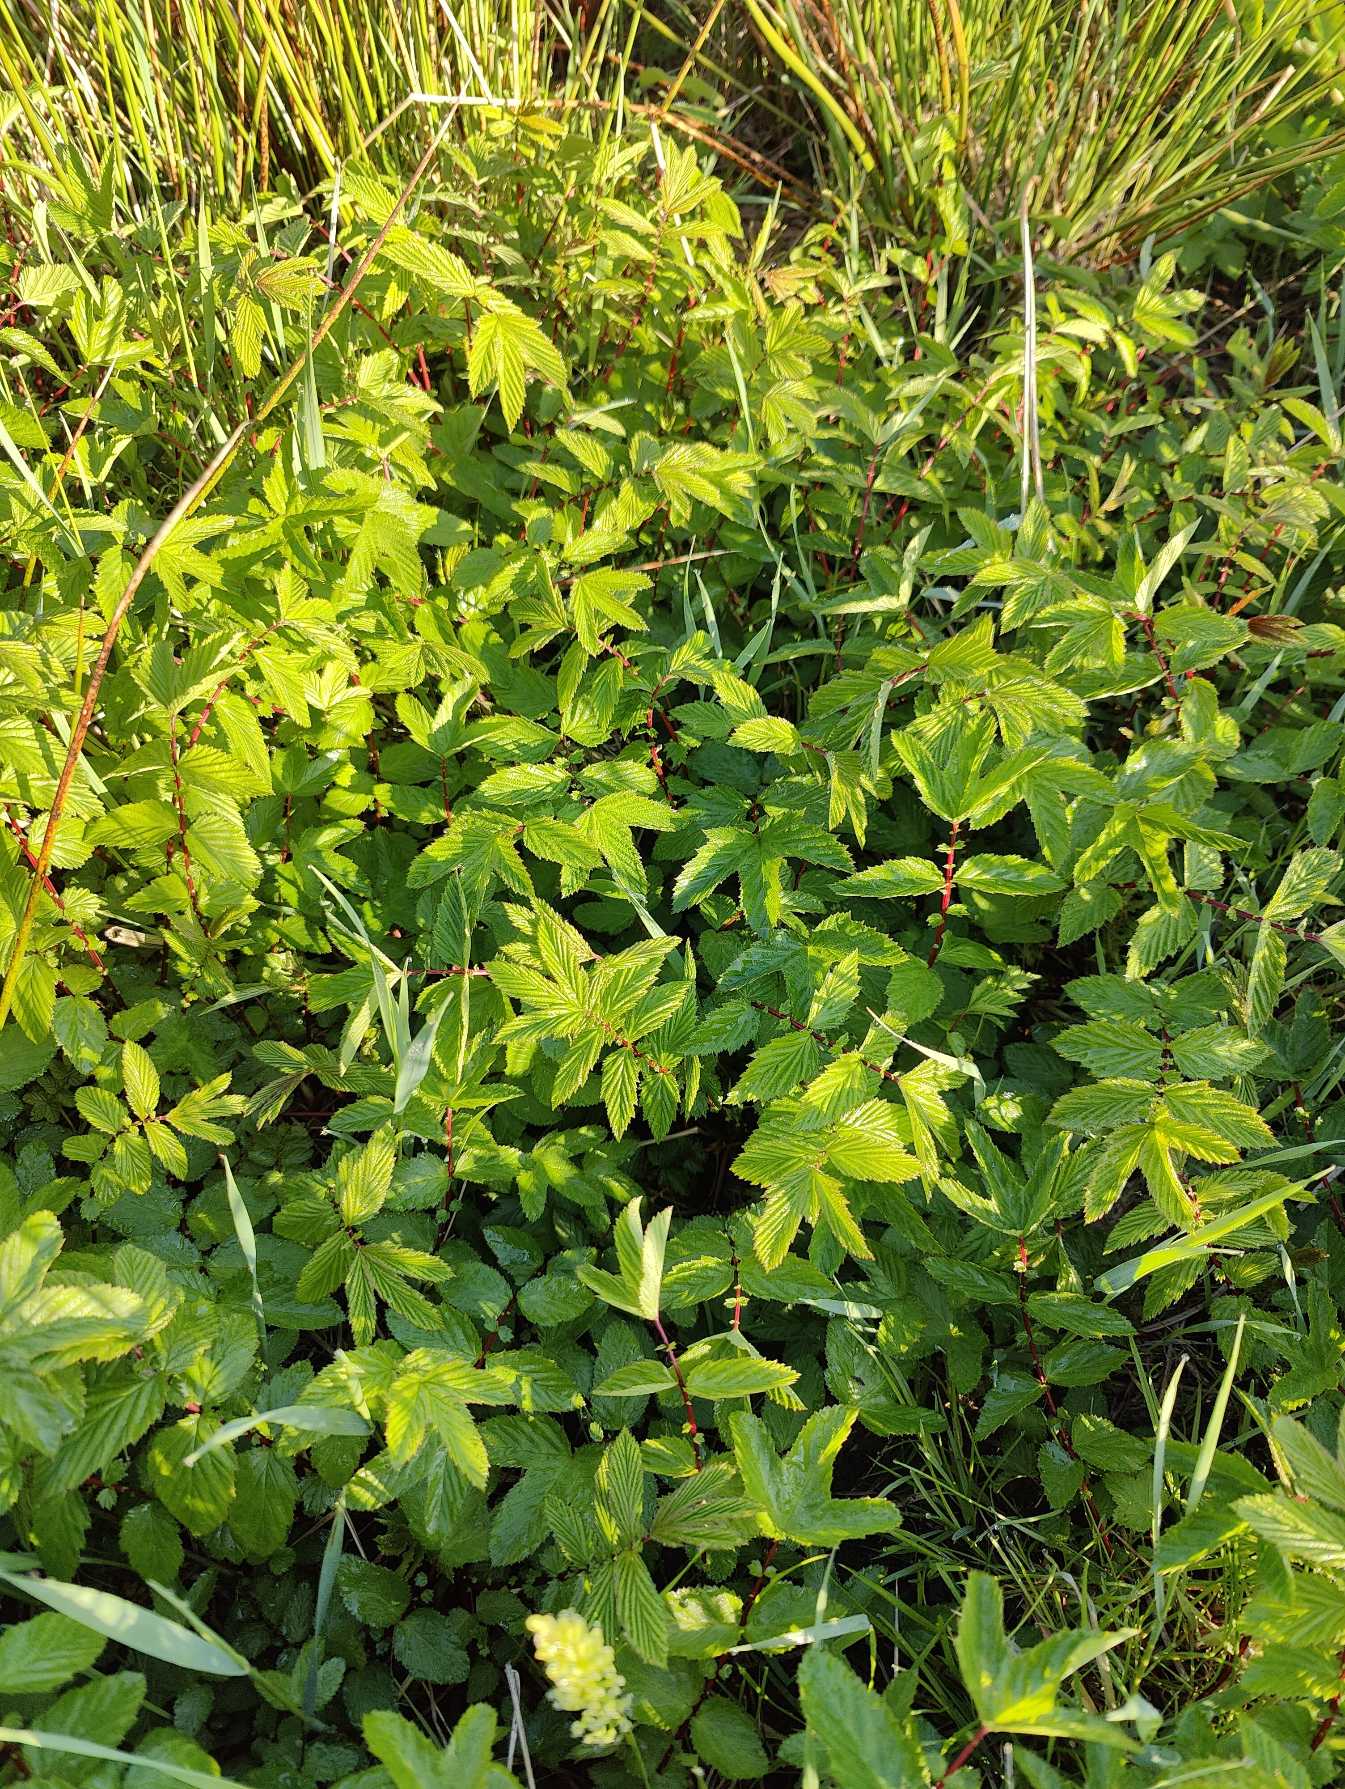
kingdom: Plantae
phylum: Tracheophyta
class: Magnoliopsida
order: Rosales
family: Rosaceae
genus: Filipendula
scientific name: Filipendula ulmaria
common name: Almindelig mjødurt
